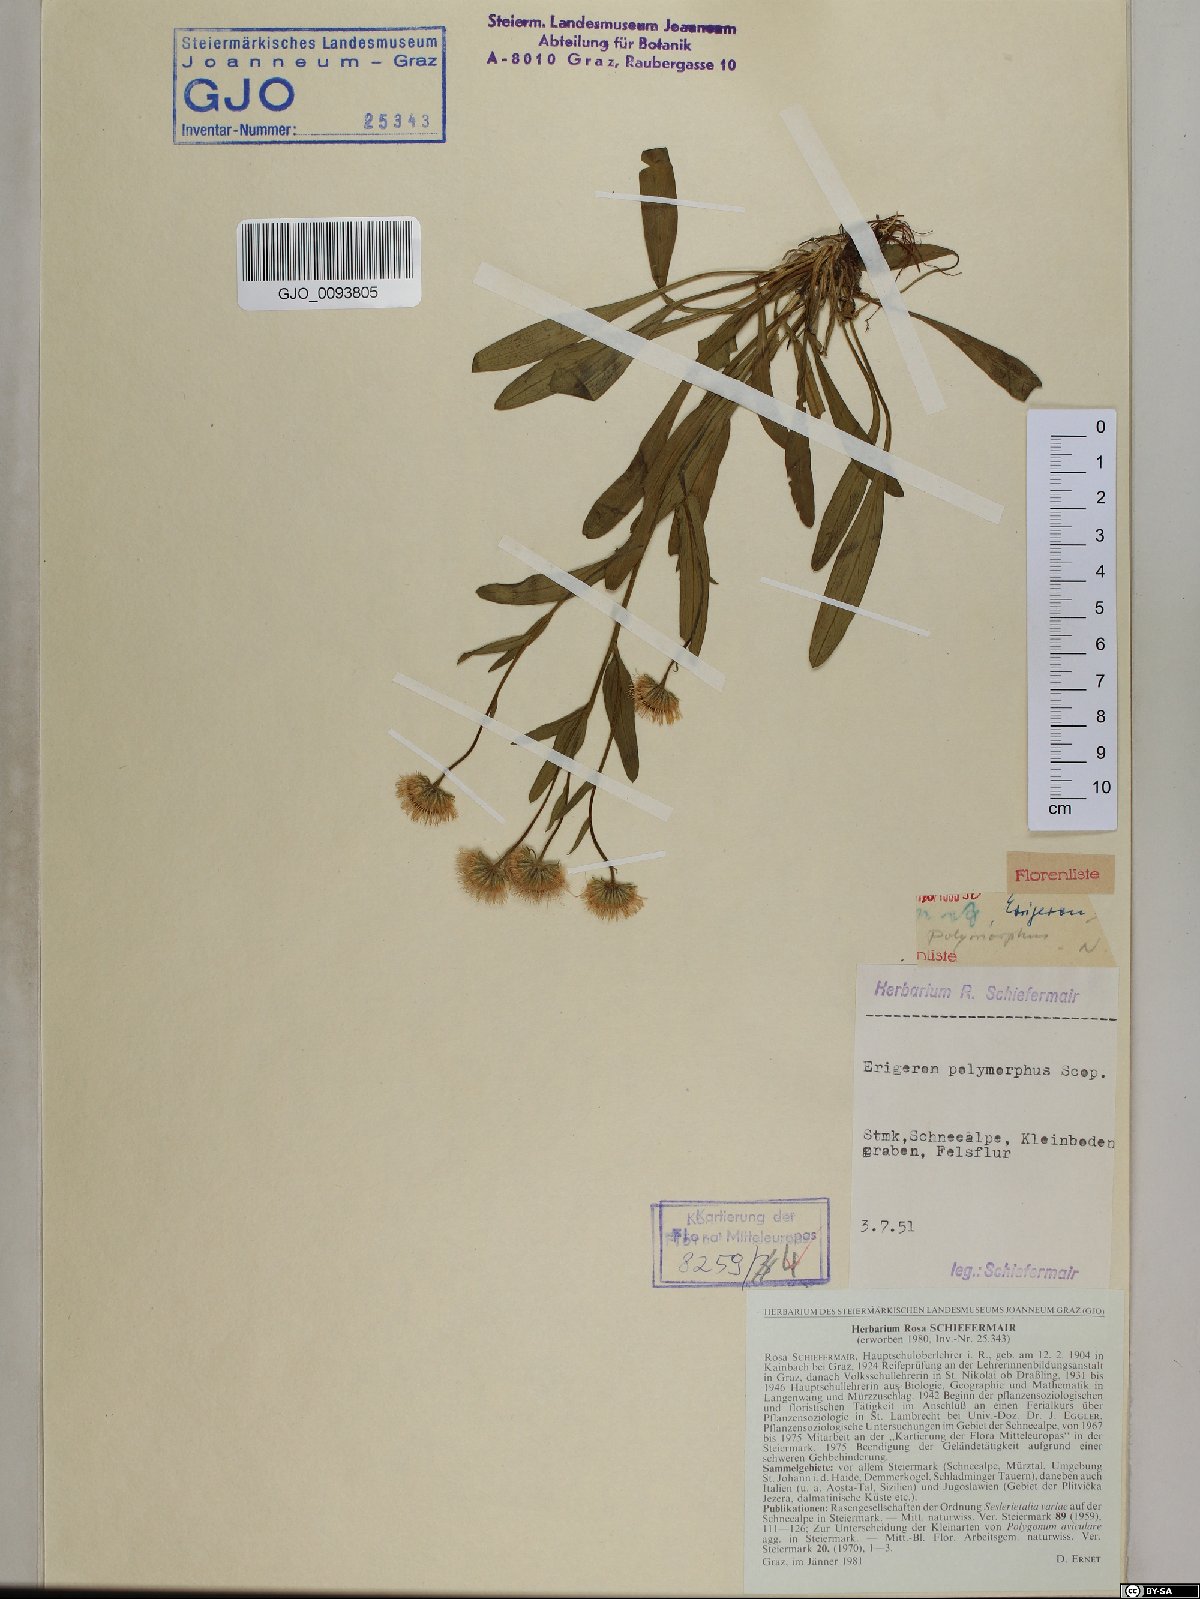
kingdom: Plantae
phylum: Tracheophyta
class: Magnoliopsida
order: Asterales
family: Asteraceae
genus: Erigeron
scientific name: Erigeron alpinus
